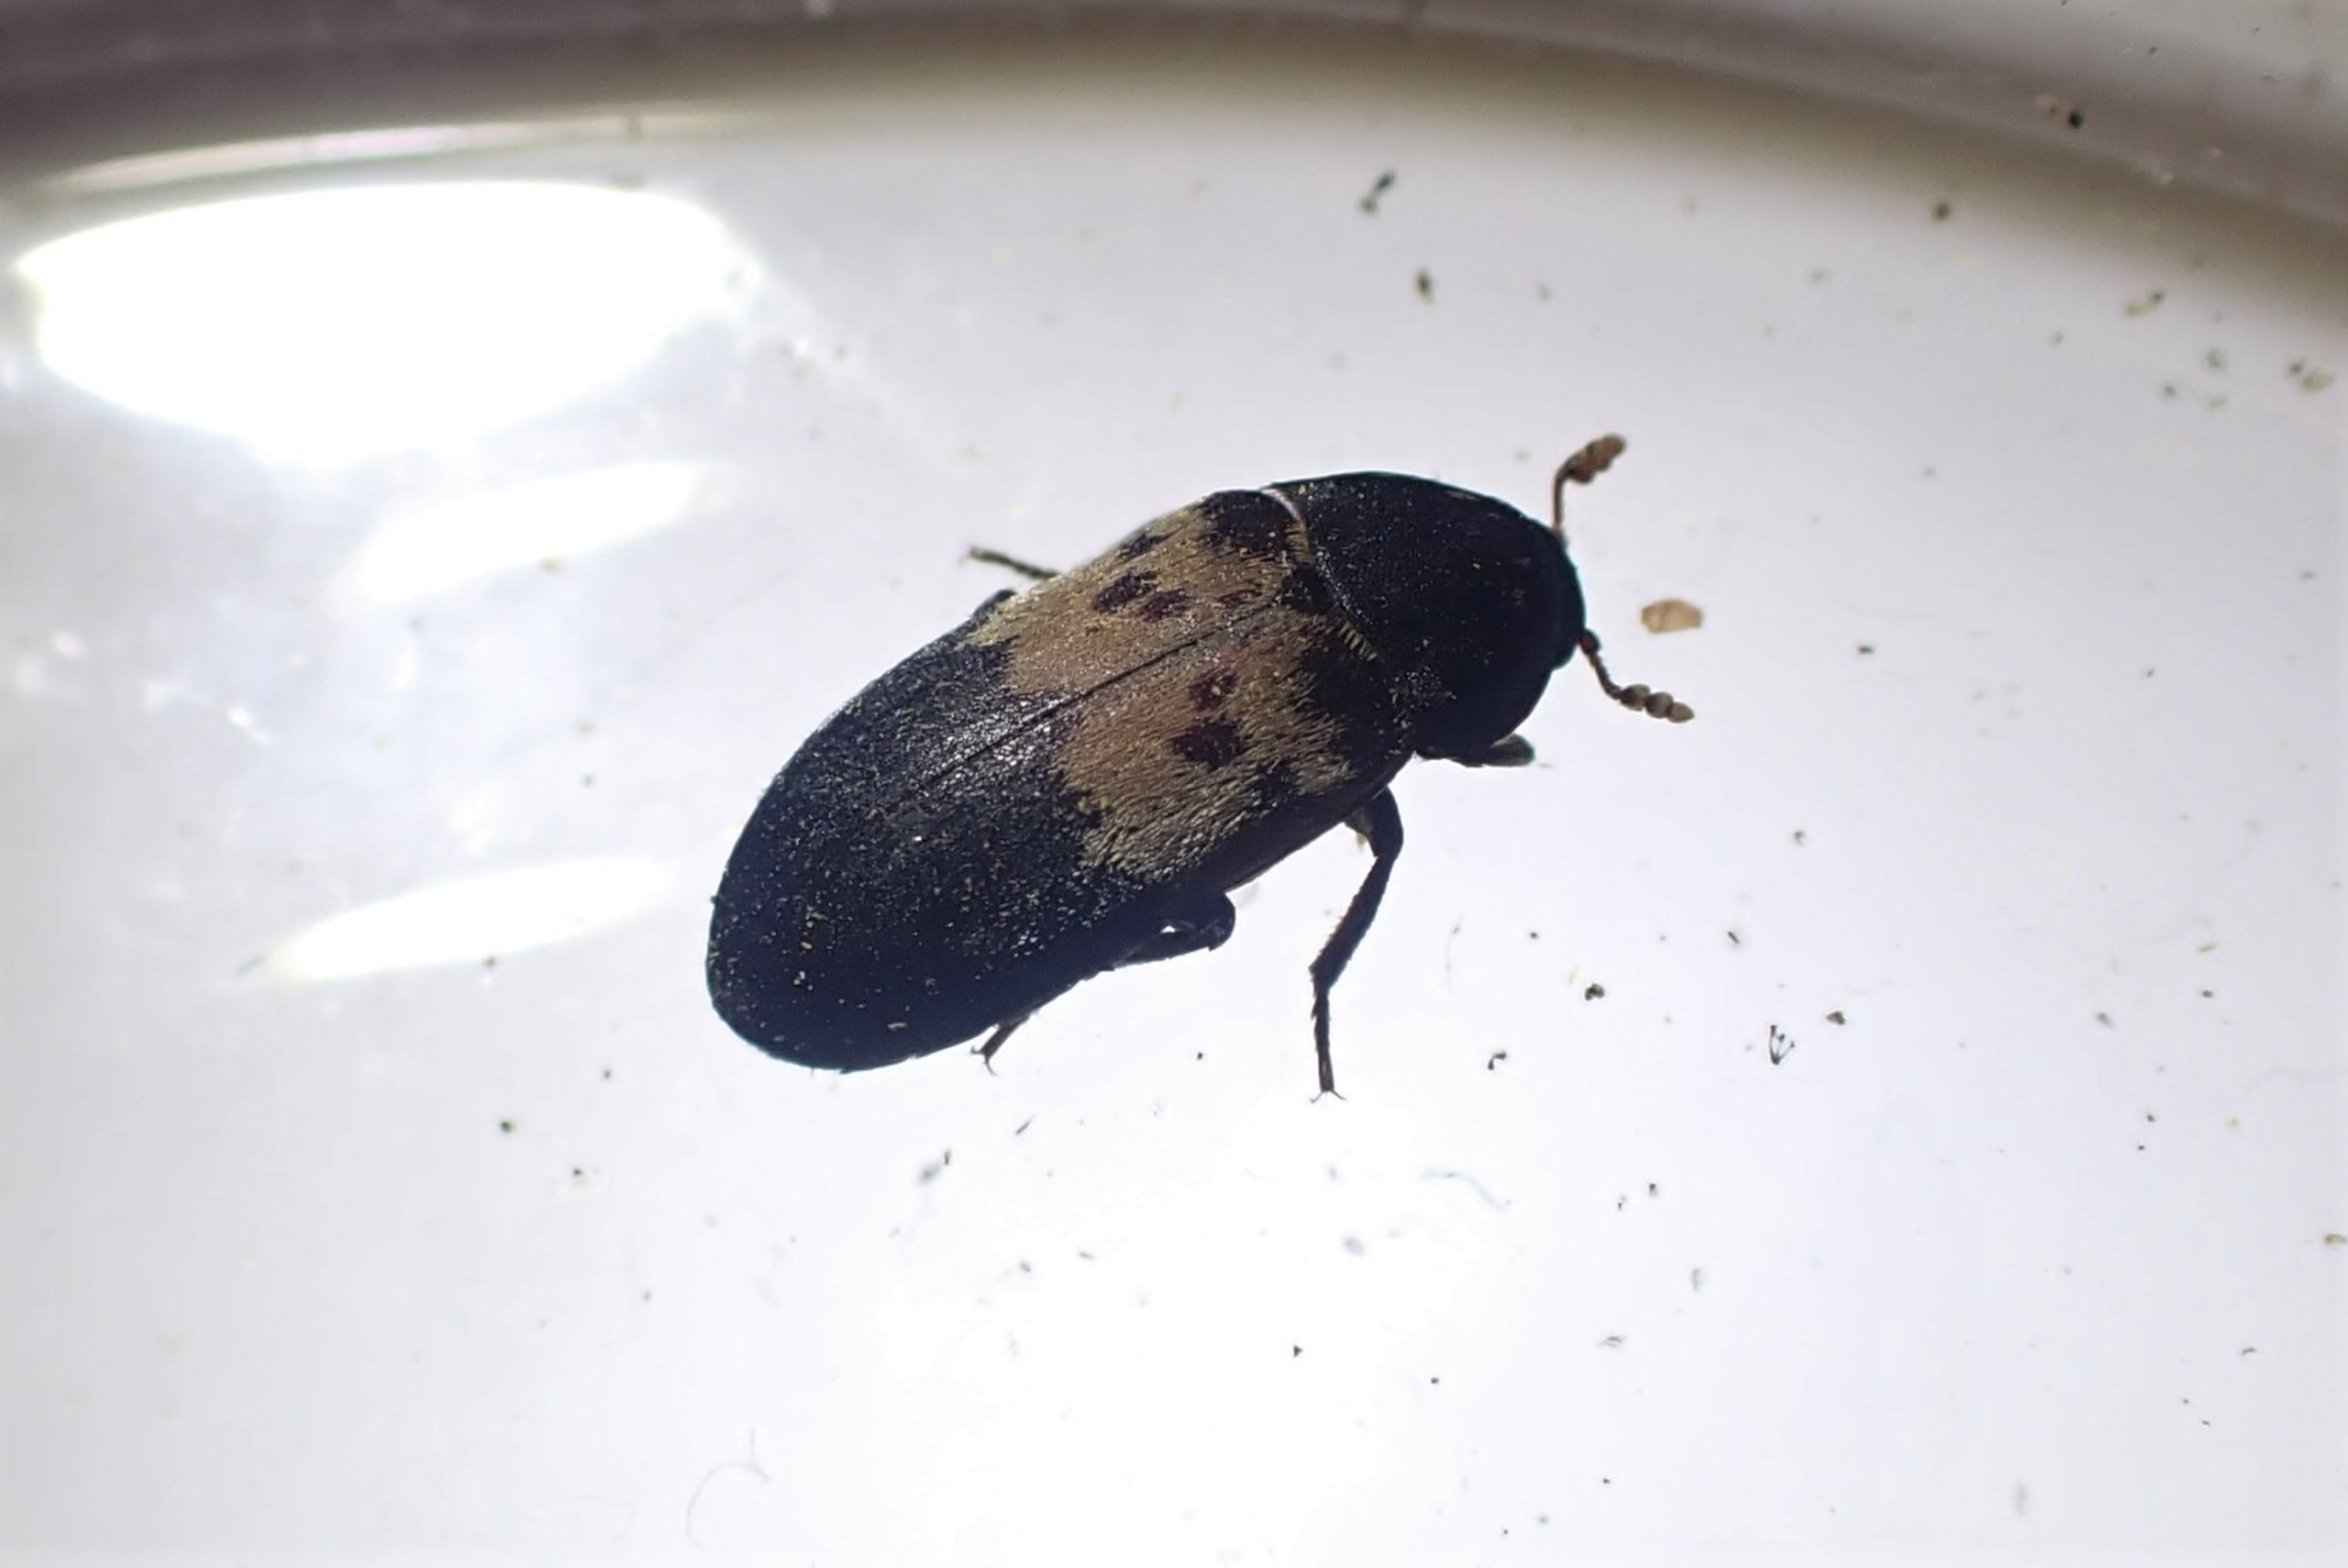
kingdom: Animalia
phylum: Arthropoda
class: Insecta
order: Coleoptera
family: Dermestidae
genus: Dermestes
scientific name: Dermestes lardarius
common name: Flæskeklanner
